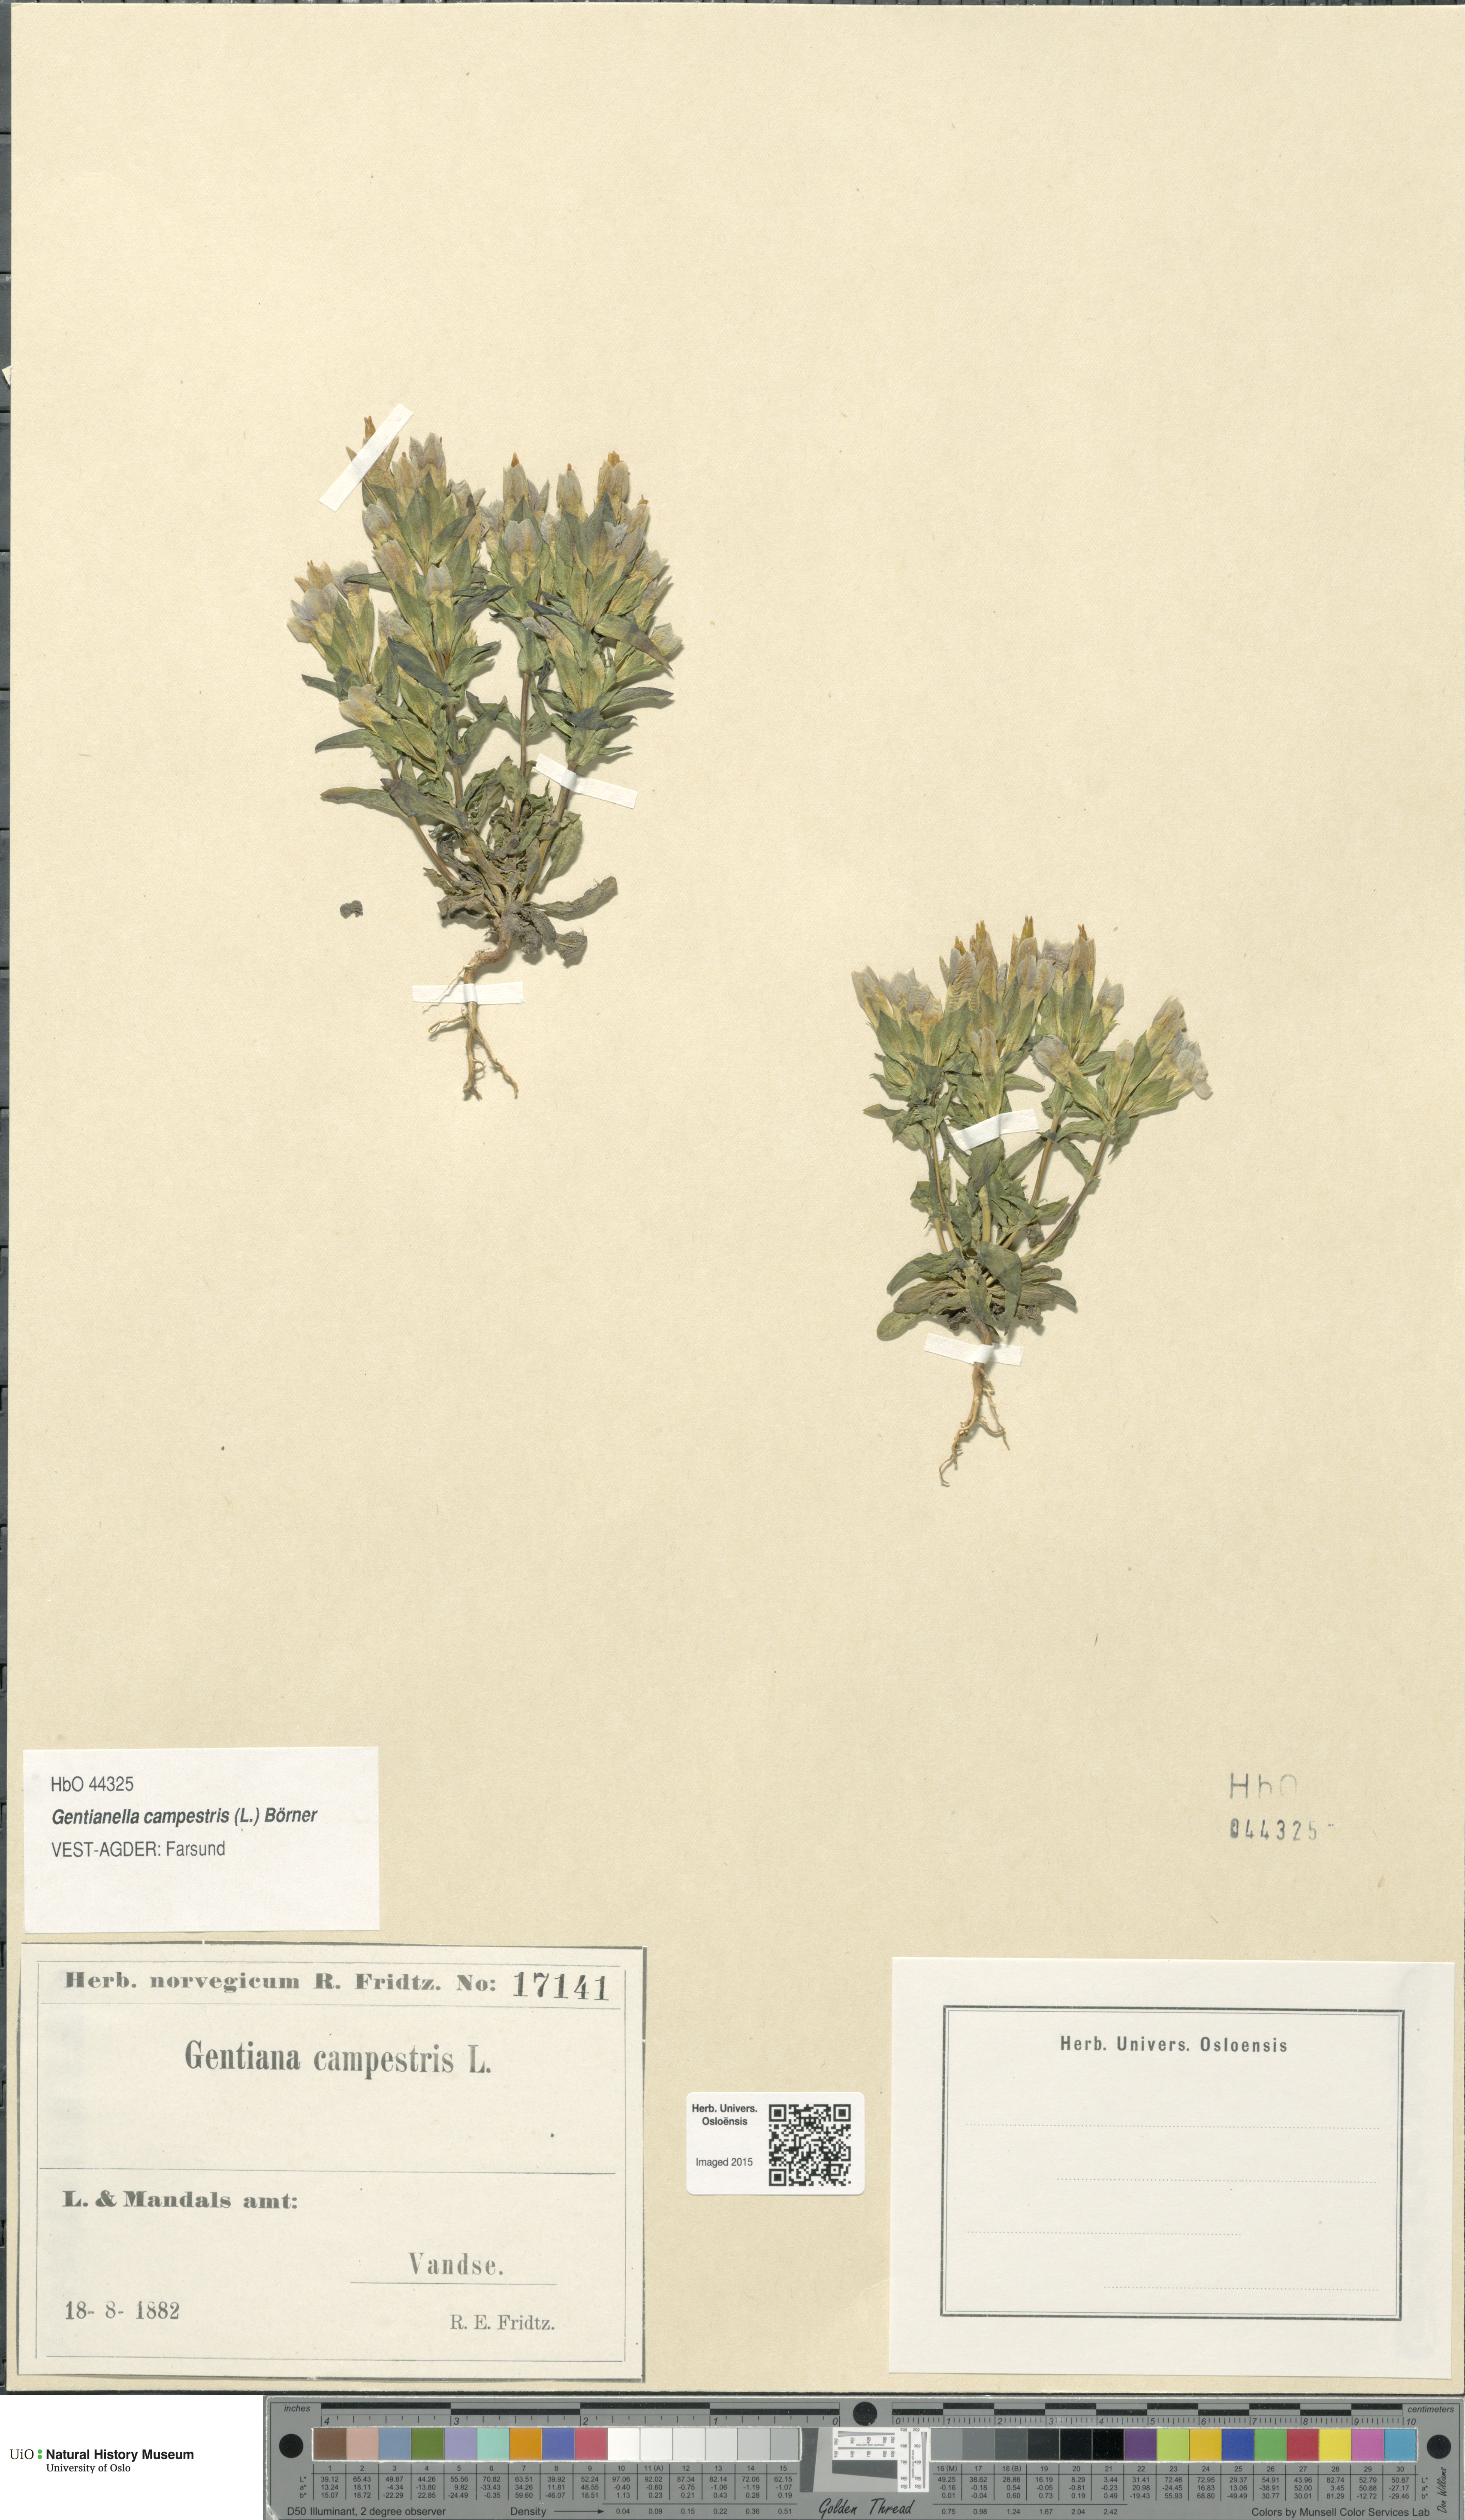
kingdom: Plantae
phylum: Tracheophyta
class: Magnoliopsida
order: Gentianales
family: Gentianaceae
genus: Gentianella
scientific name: Gentianella campestris
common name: Field gentian
